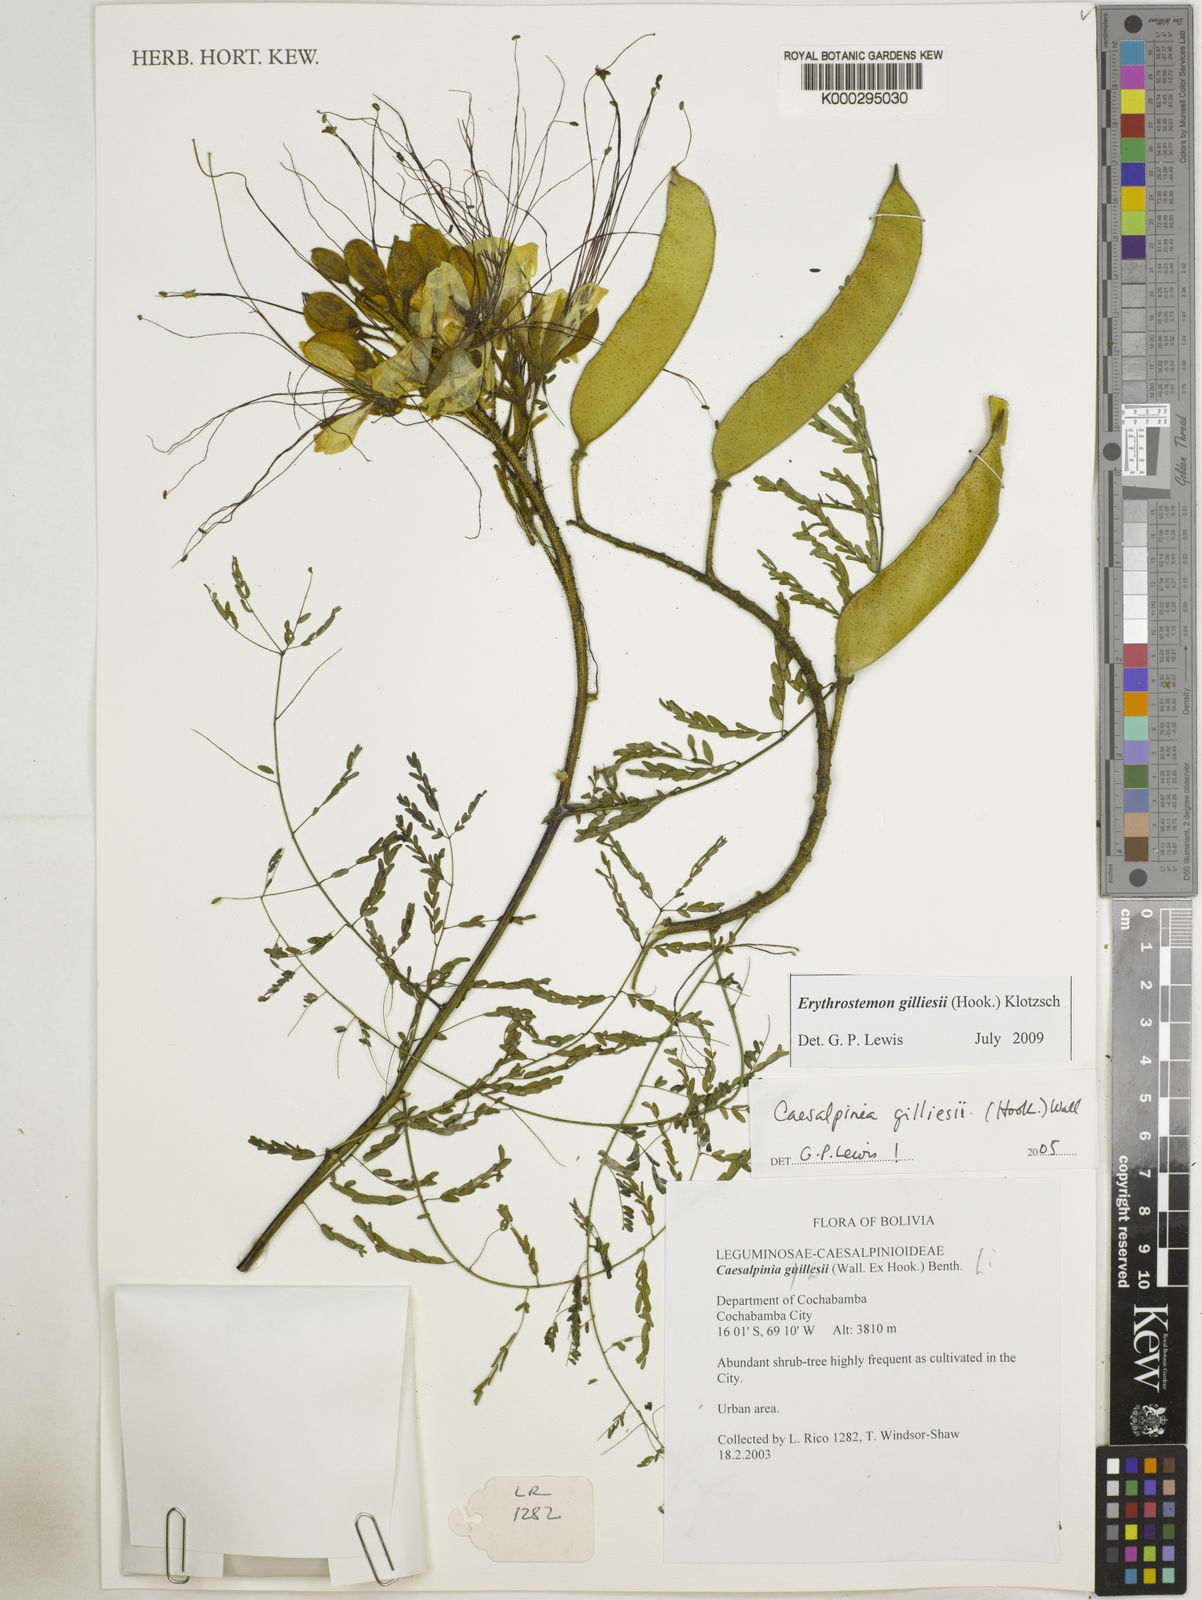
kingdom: Plantae
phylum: Tracheophyta
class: Magnoliopsida
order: Fabales
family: Fabaceae
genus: Caesalpinia
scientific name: Caesalpinia
